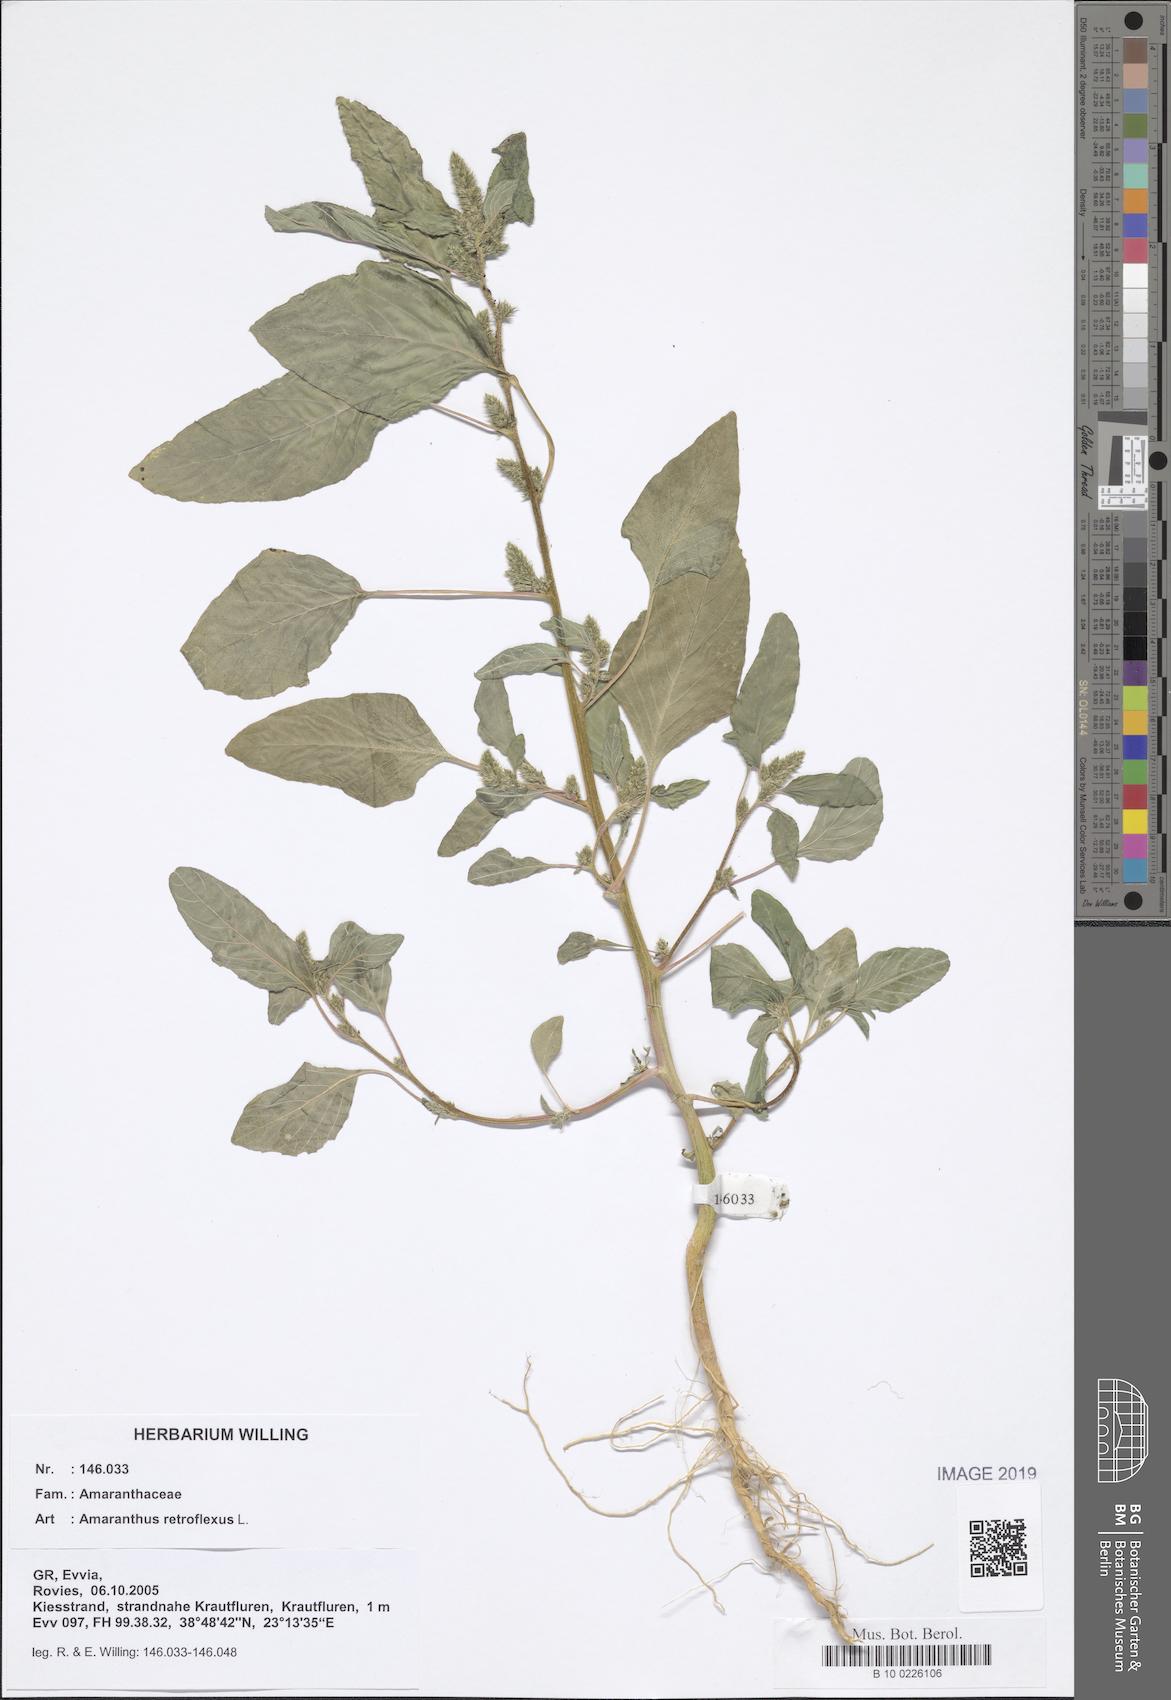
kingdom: Plantae
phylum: Tracheophyta
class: Magnoliopsida
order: Caryophyllales
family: Amaranthaceae
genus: Amaranthus
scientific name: Amaranthus retroflexus
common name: Redroot amaranth
